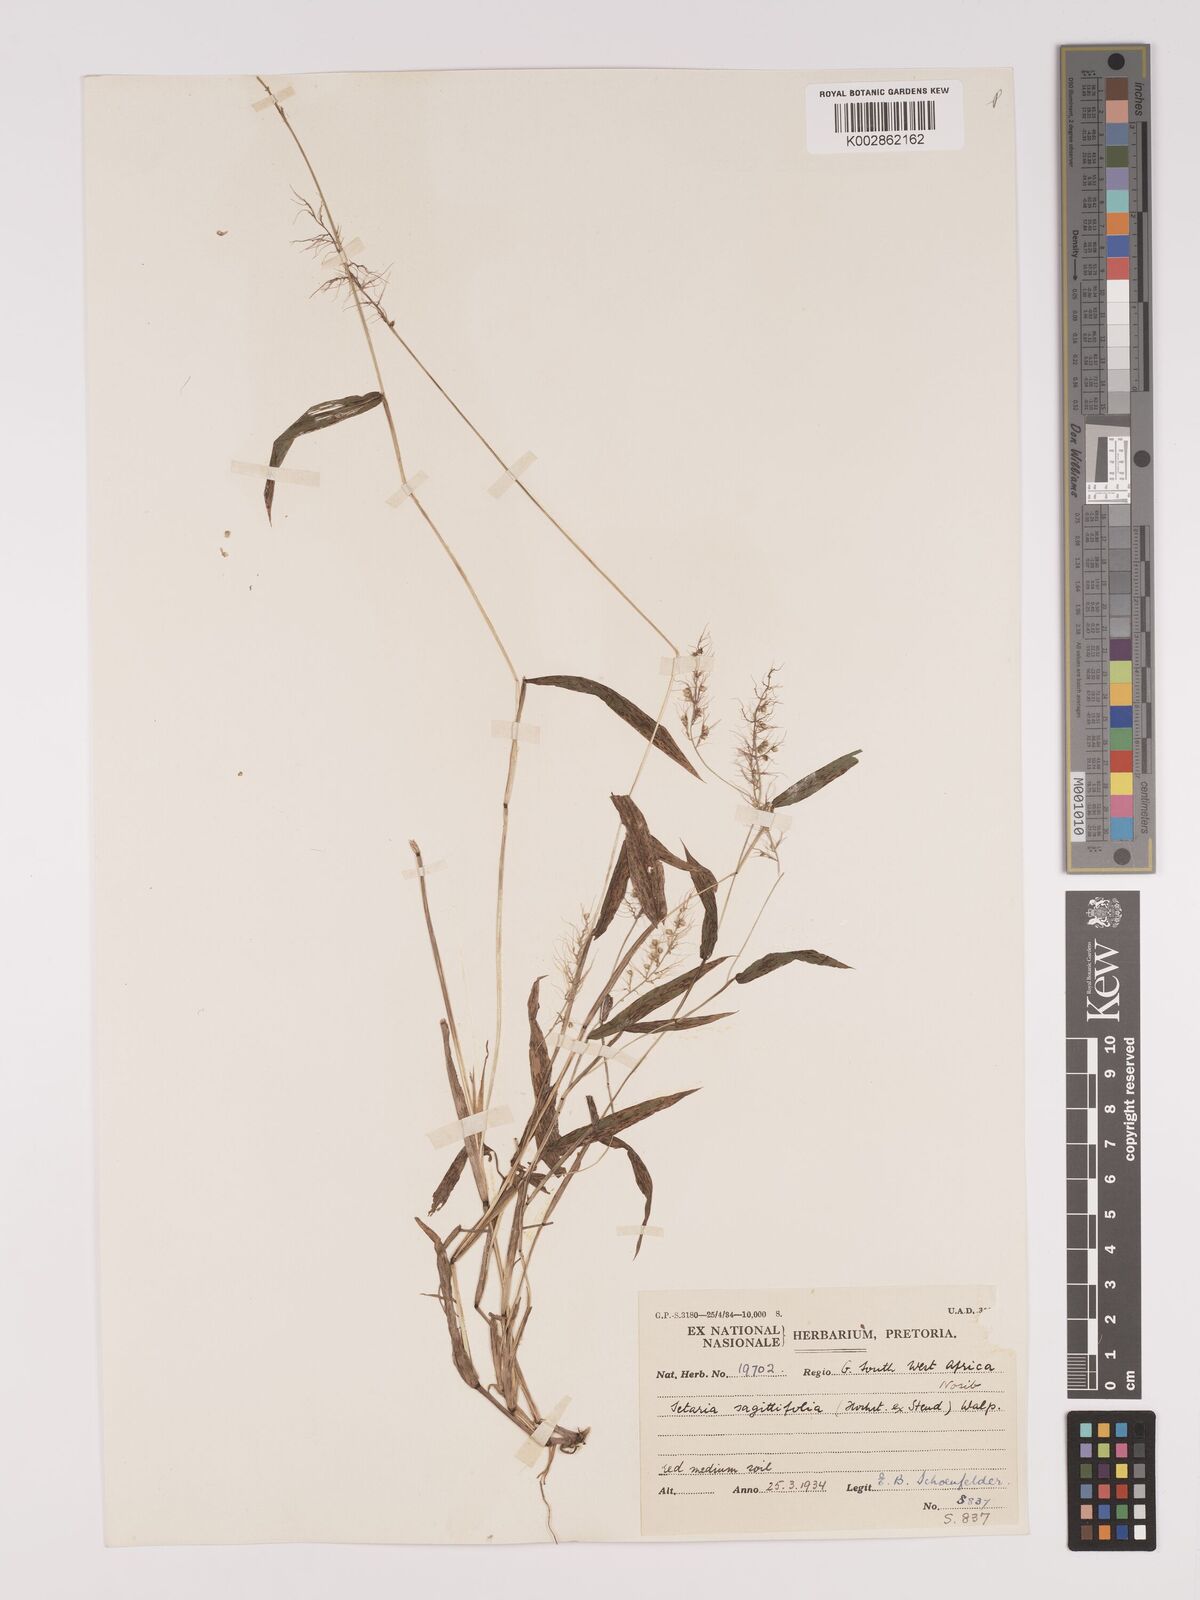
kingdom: Plantae
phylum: Tracheophyta
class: Liliopsida
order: Poales
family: Poaceae
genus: Setaria
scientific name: Setaria sagittifolia
